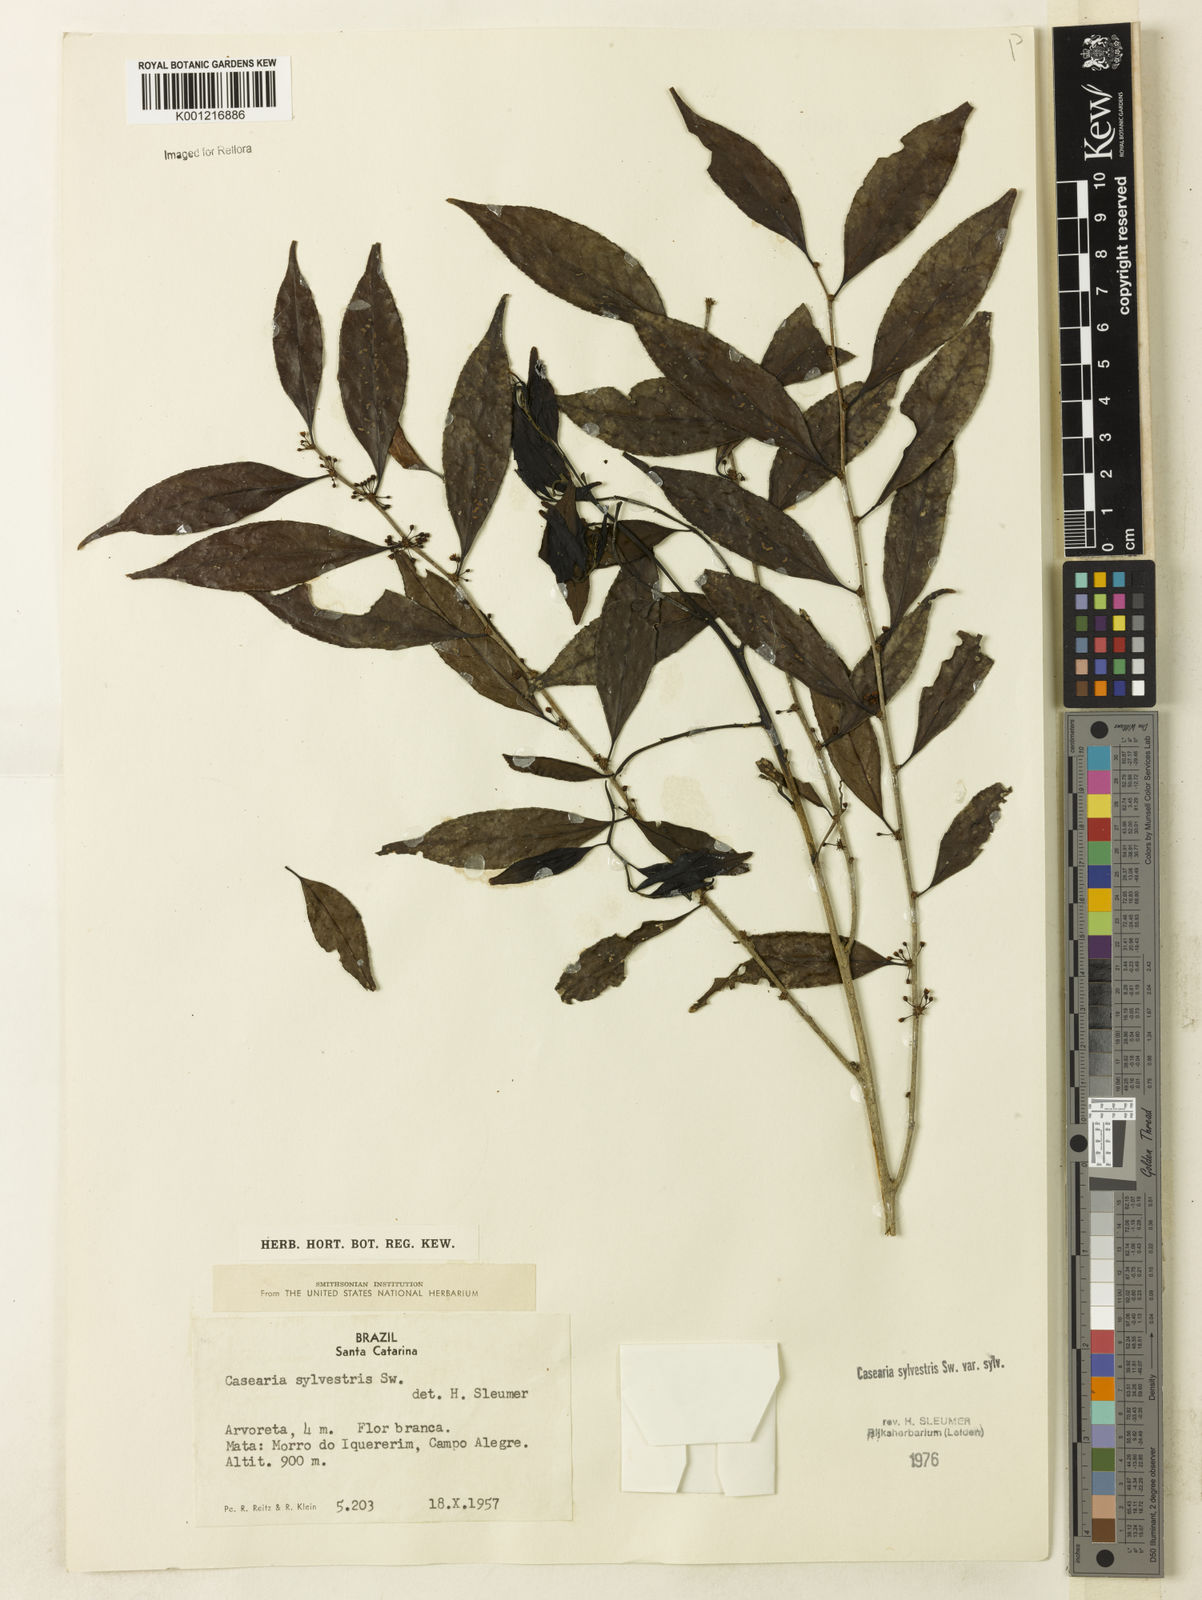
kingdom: Plantae
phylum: Tracheophyta
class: Magnoliopsida
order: Malpighiales
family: Salicaceae
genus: Casearia
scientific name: Casearia sylvestris
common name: Wild sage
